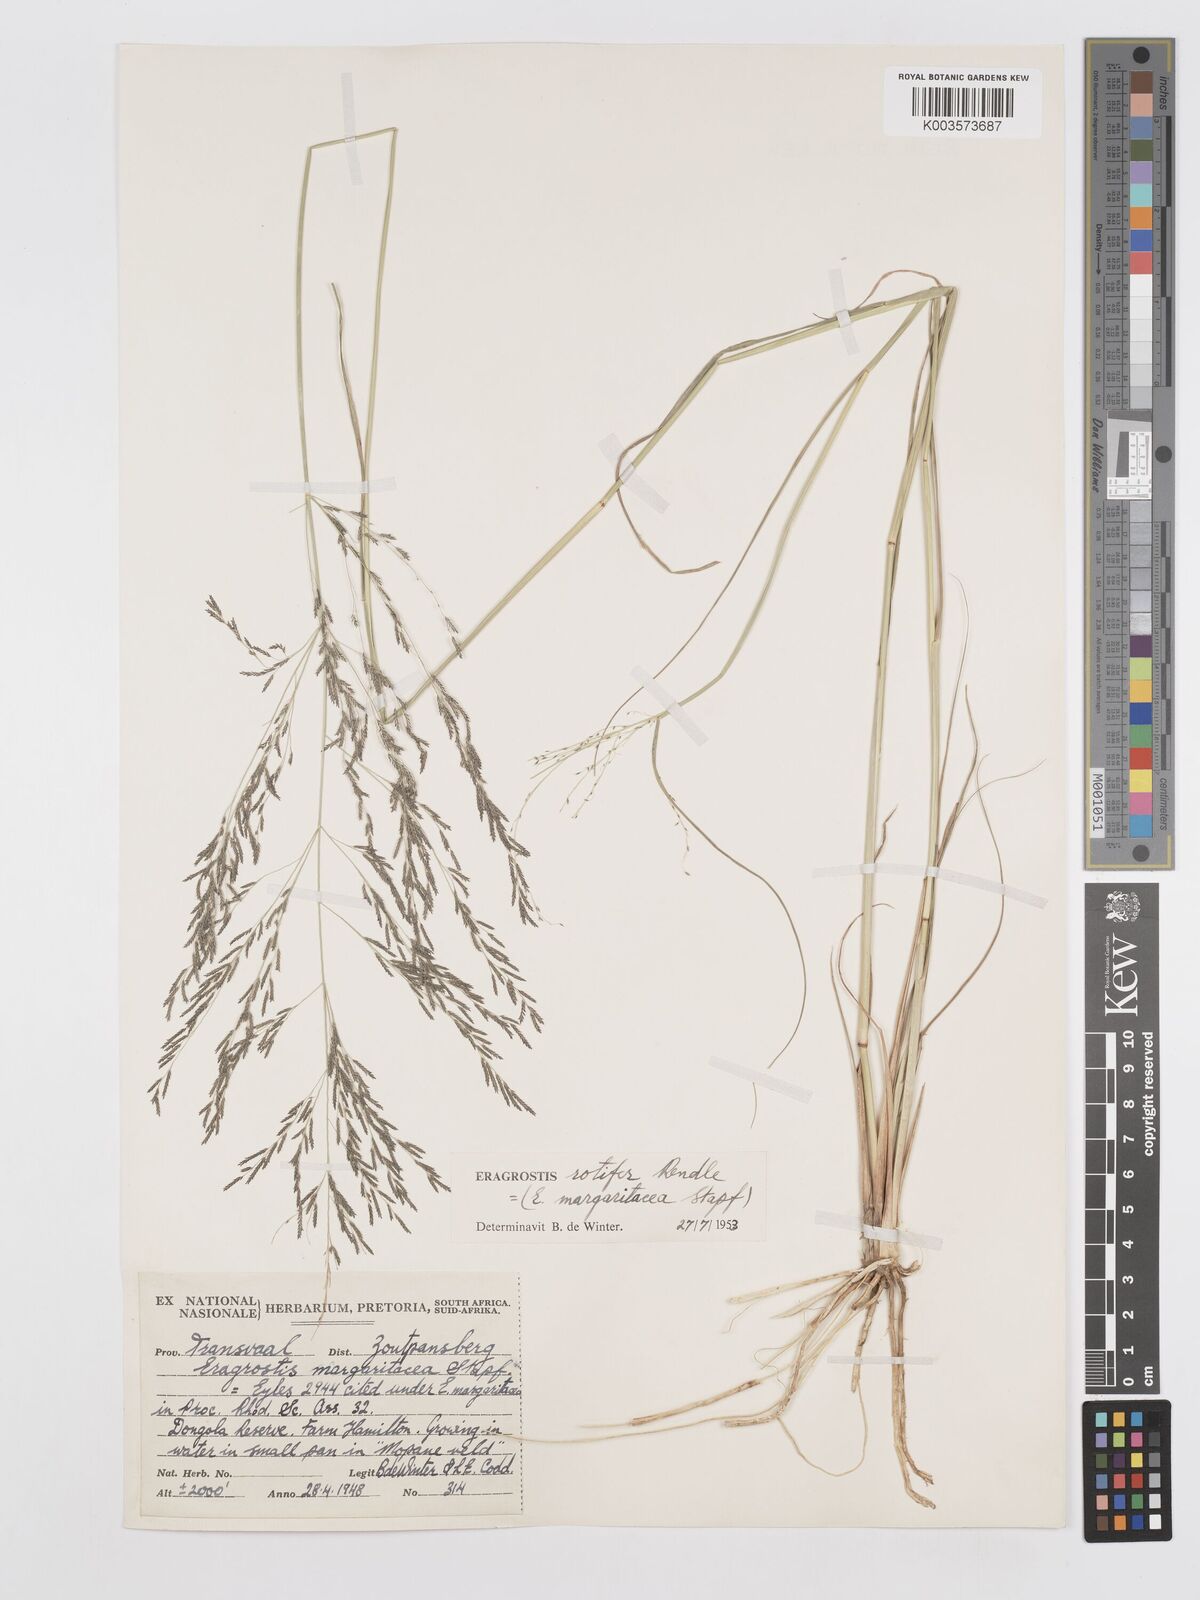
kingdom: Plantae
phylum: Tracheophyta
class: Liliopsida
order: Poales
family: Poaceae
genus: Eragrostis
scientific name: Eragrostis rotifer
